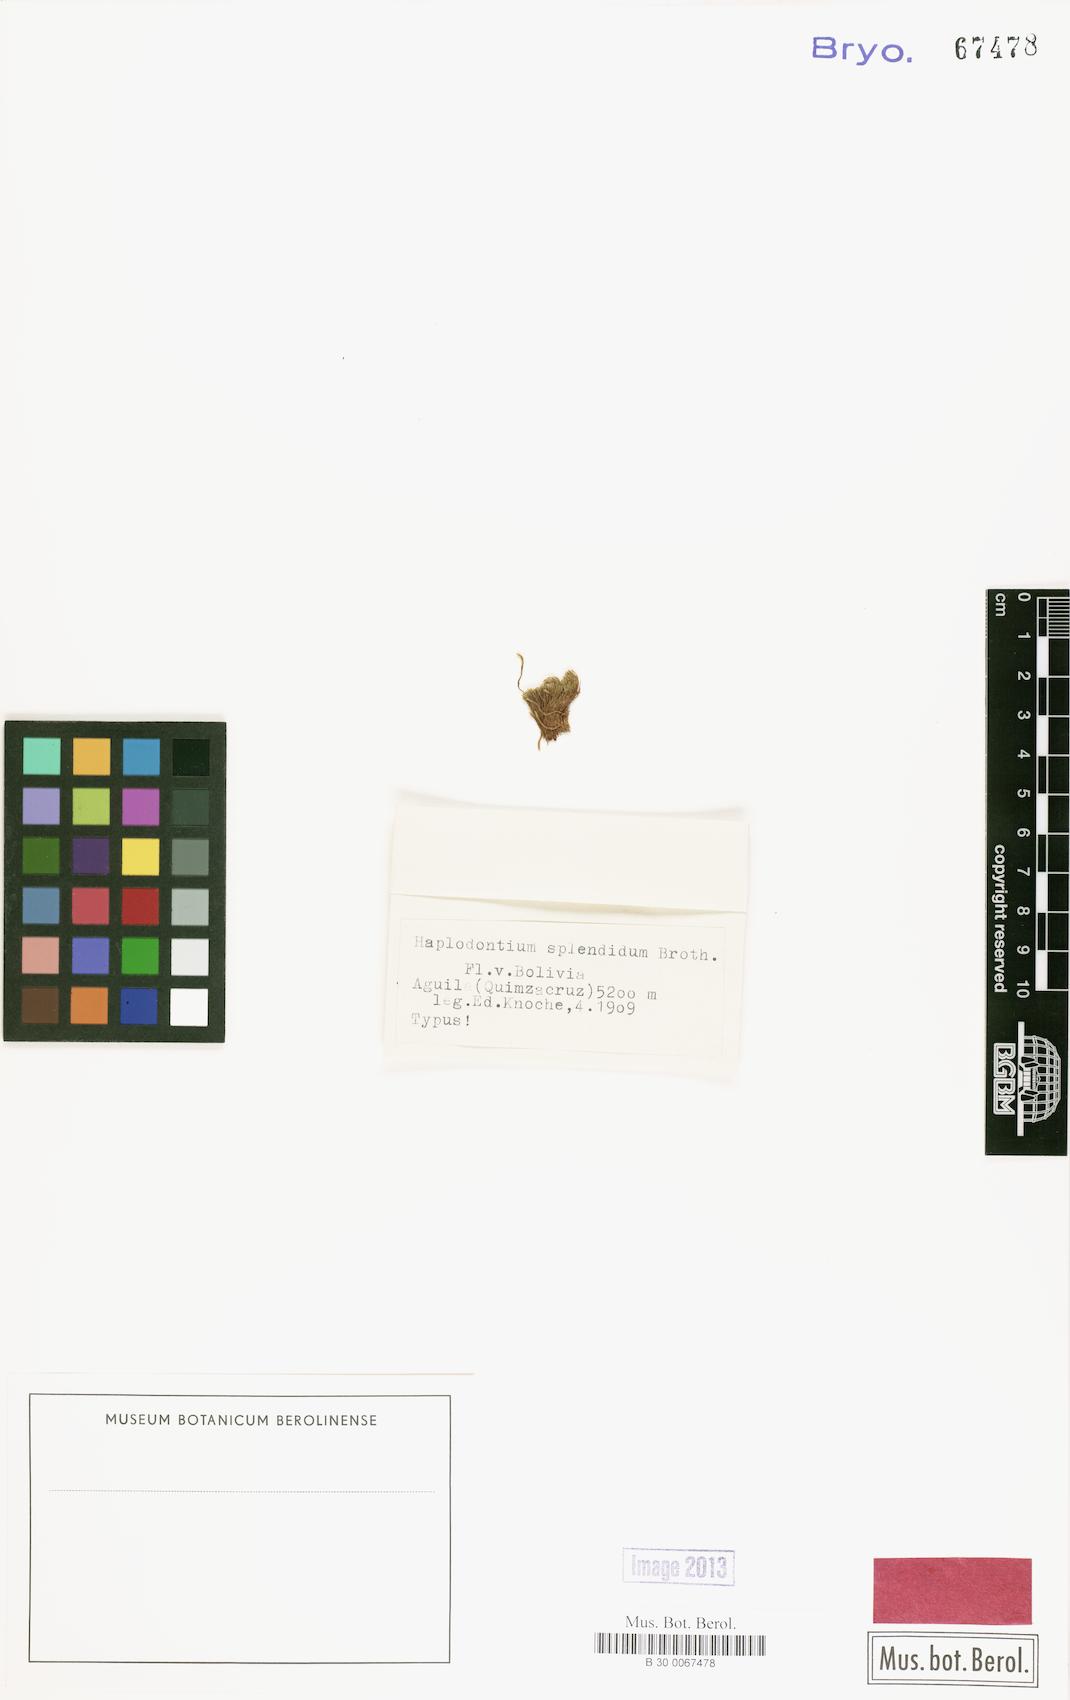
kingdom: Plantae
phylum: Bryophyta
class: Bryopsida
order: Bryales
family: Mniaceae
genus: Mielichhoferia
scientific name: Mielichhoferia splendida
